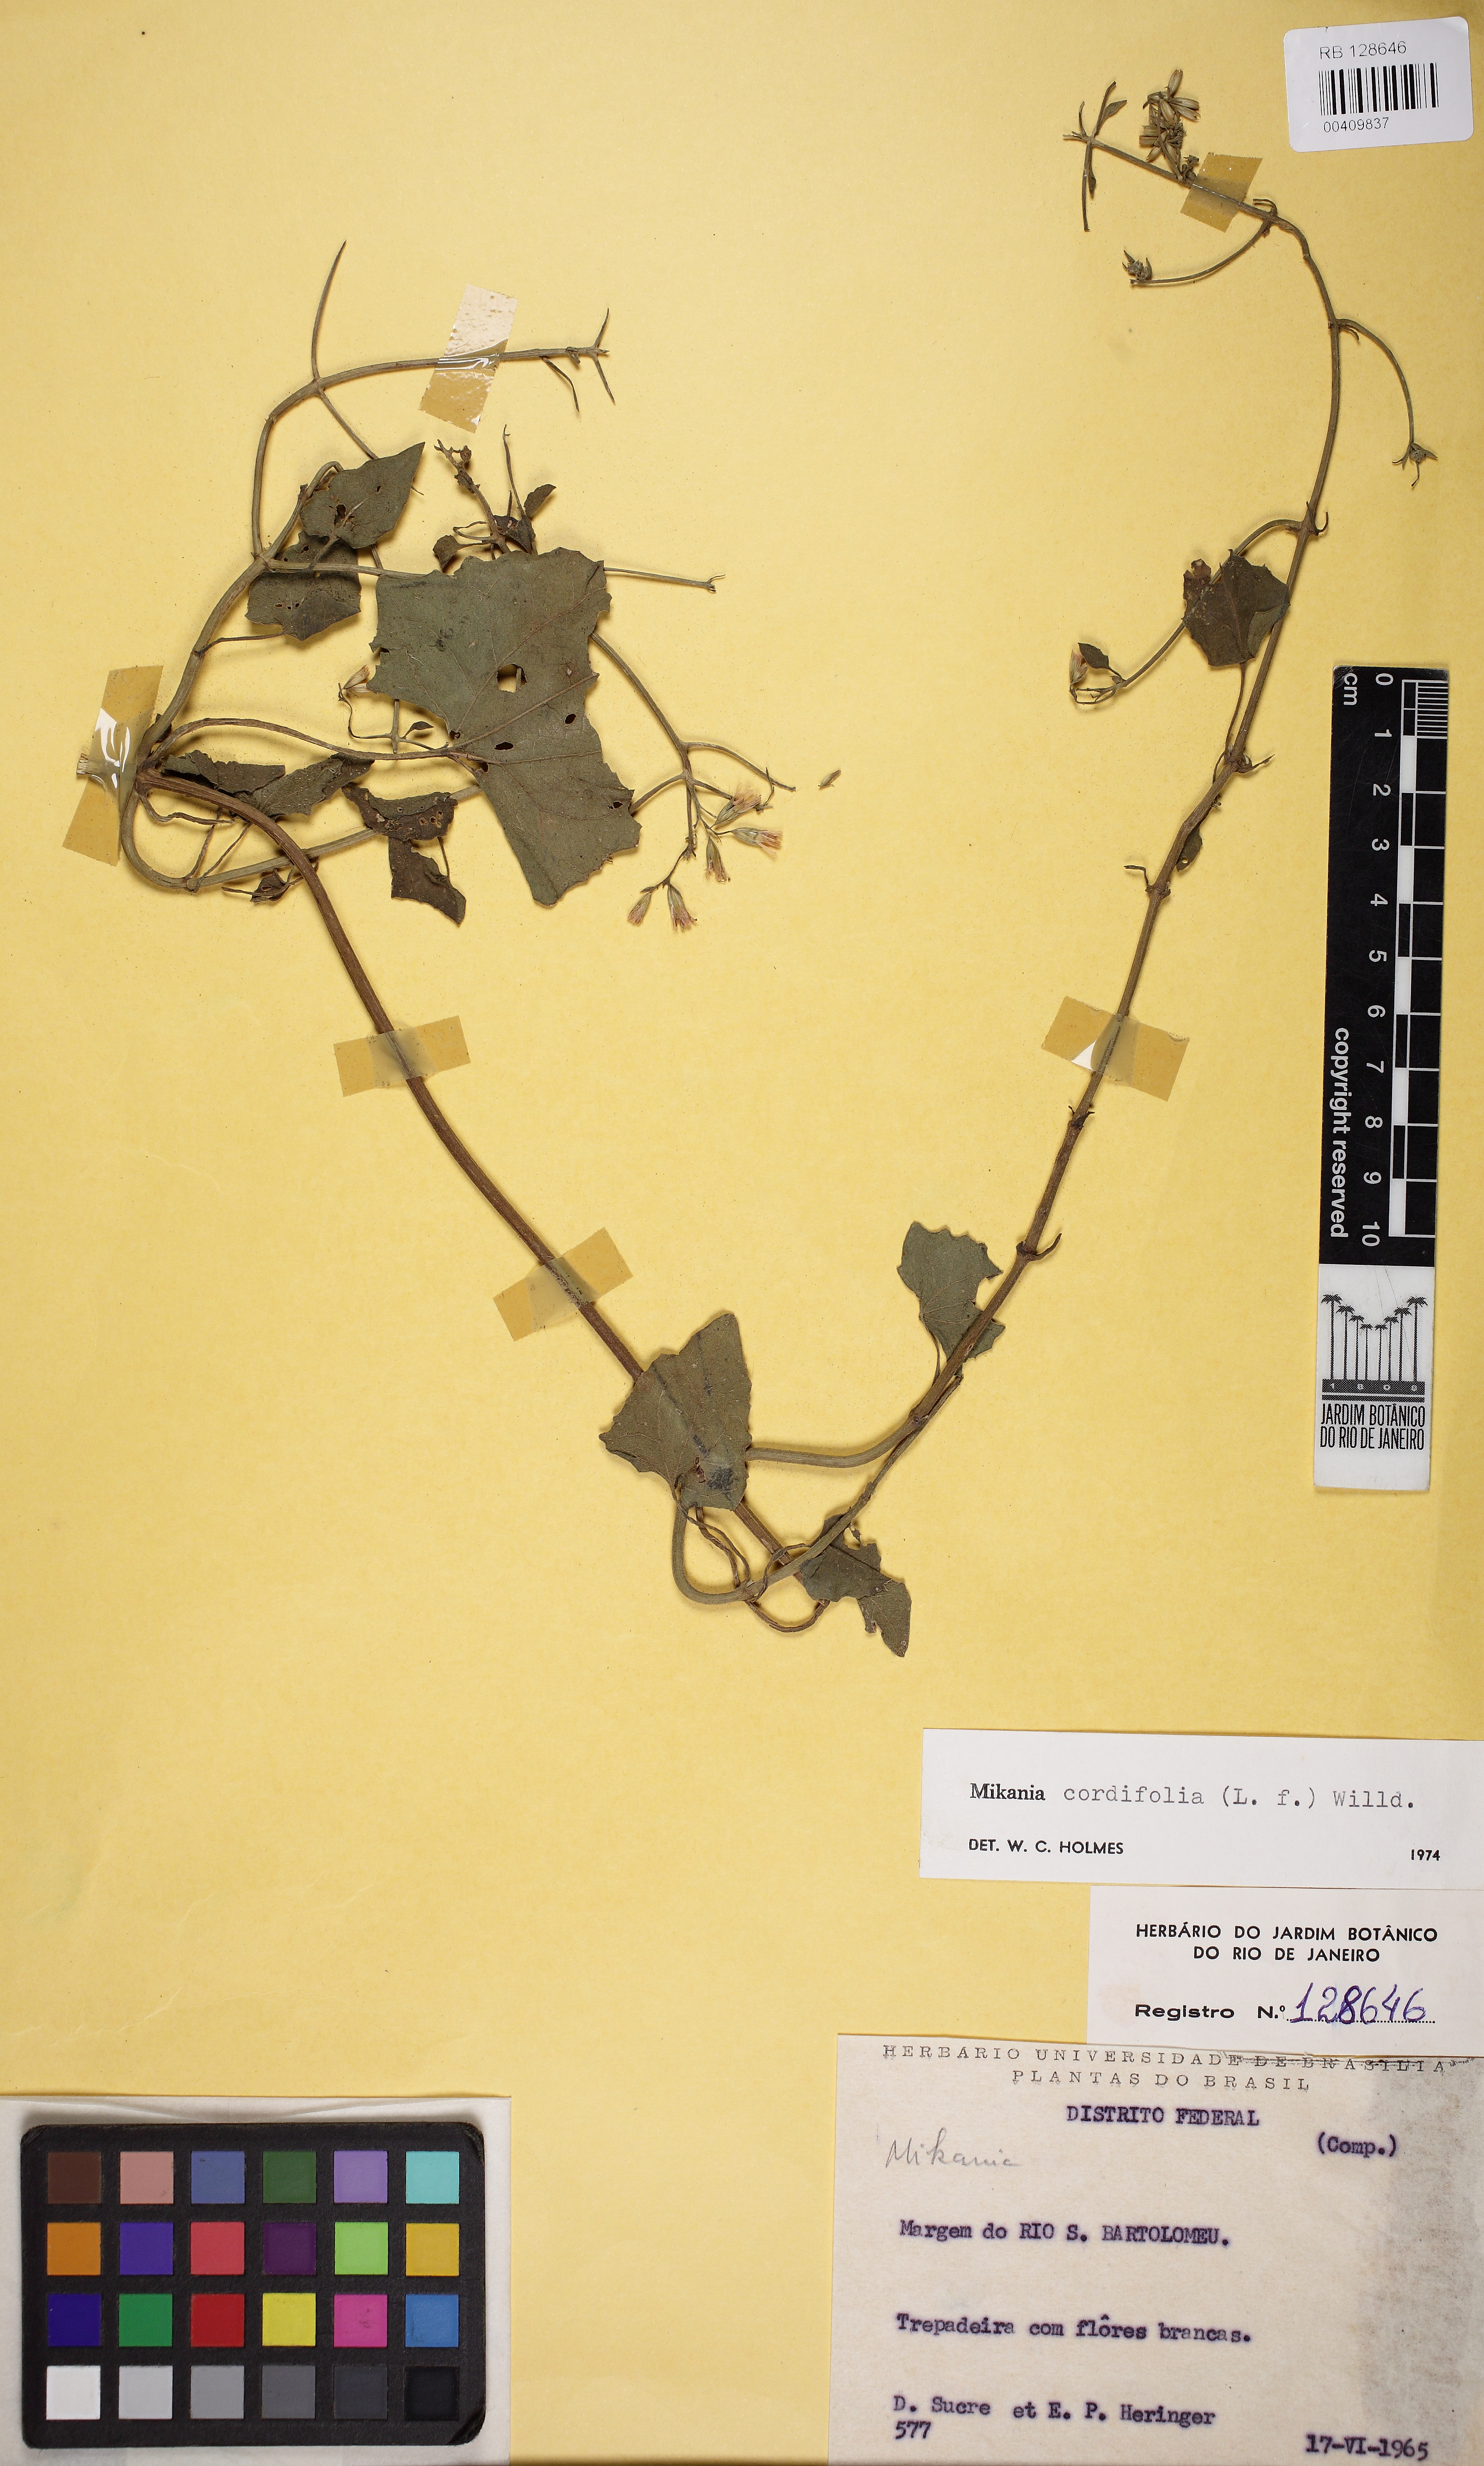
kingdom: Plantae
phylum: Tracheophyta
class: Magnoliopsida
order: Asterales
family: Asteraceae
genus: Mikania
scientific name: Mikania cordifolia
